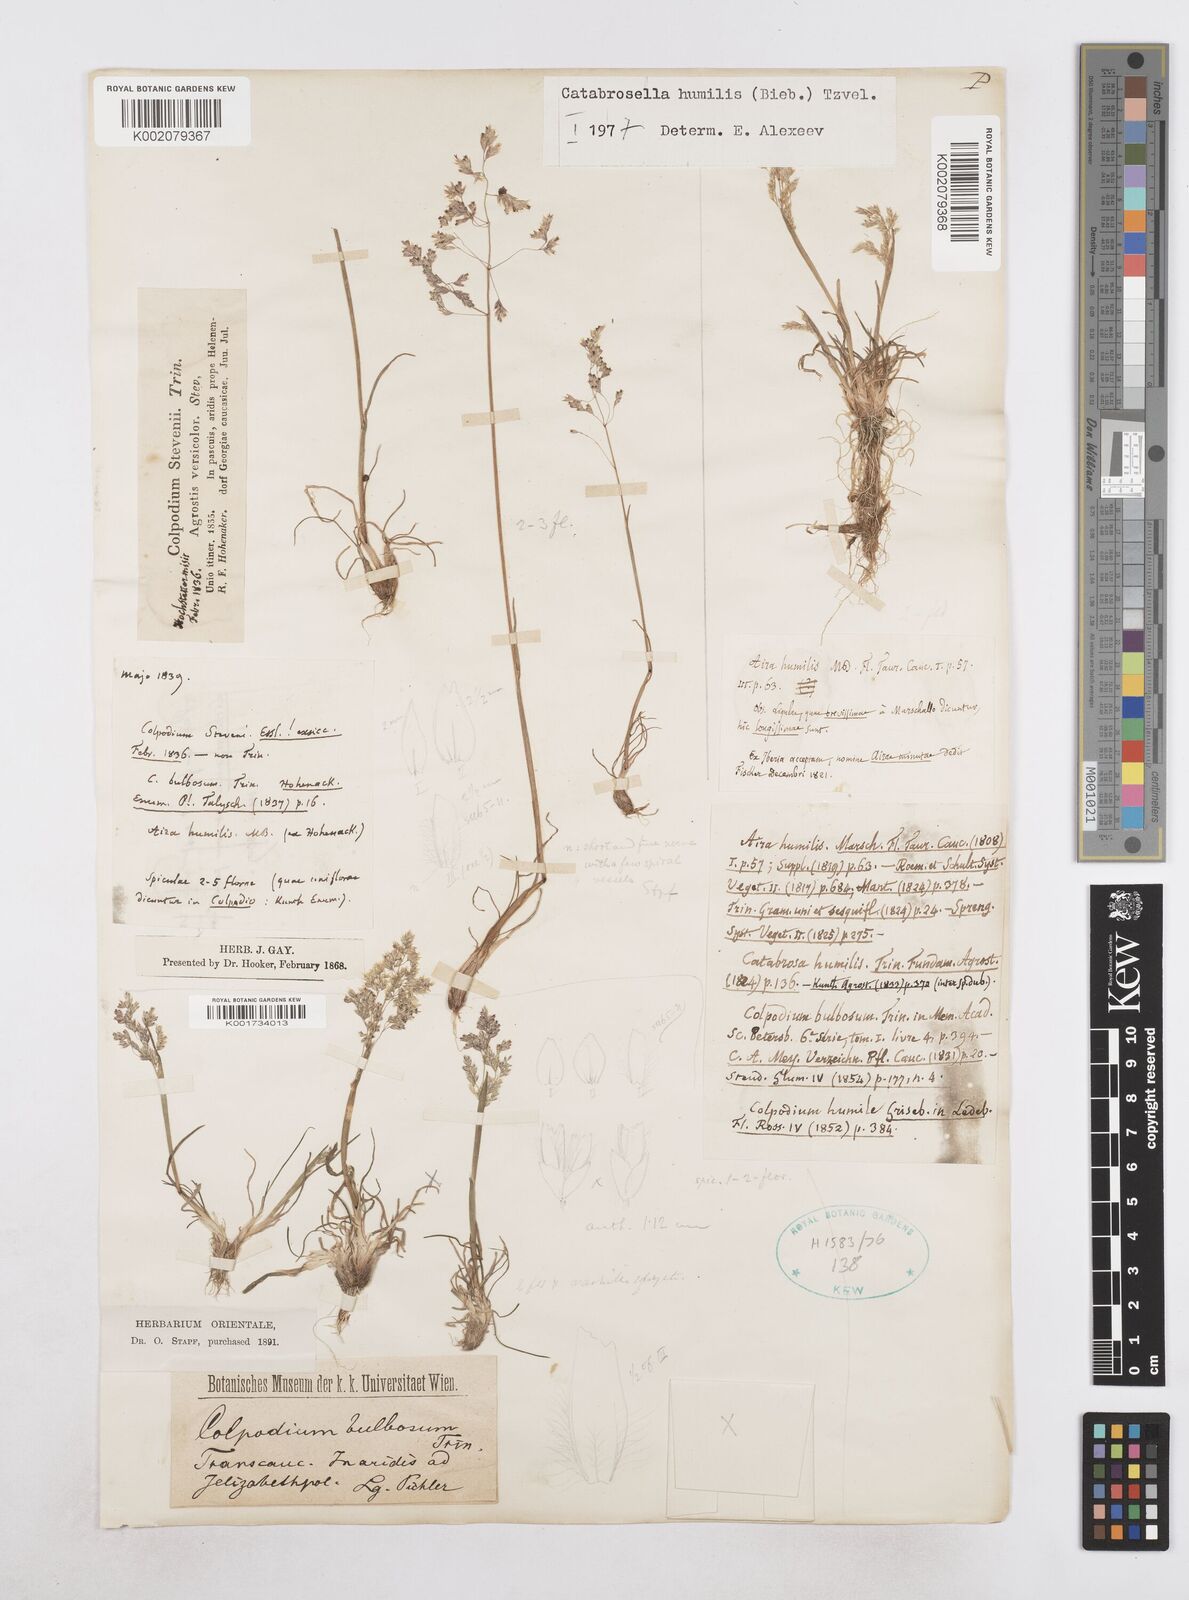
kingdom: Plantae
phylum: Tracheophyta
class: Liliopsida
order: Poales
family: Poaceae
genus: Catabrosella
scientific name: Catabrosella humilis
